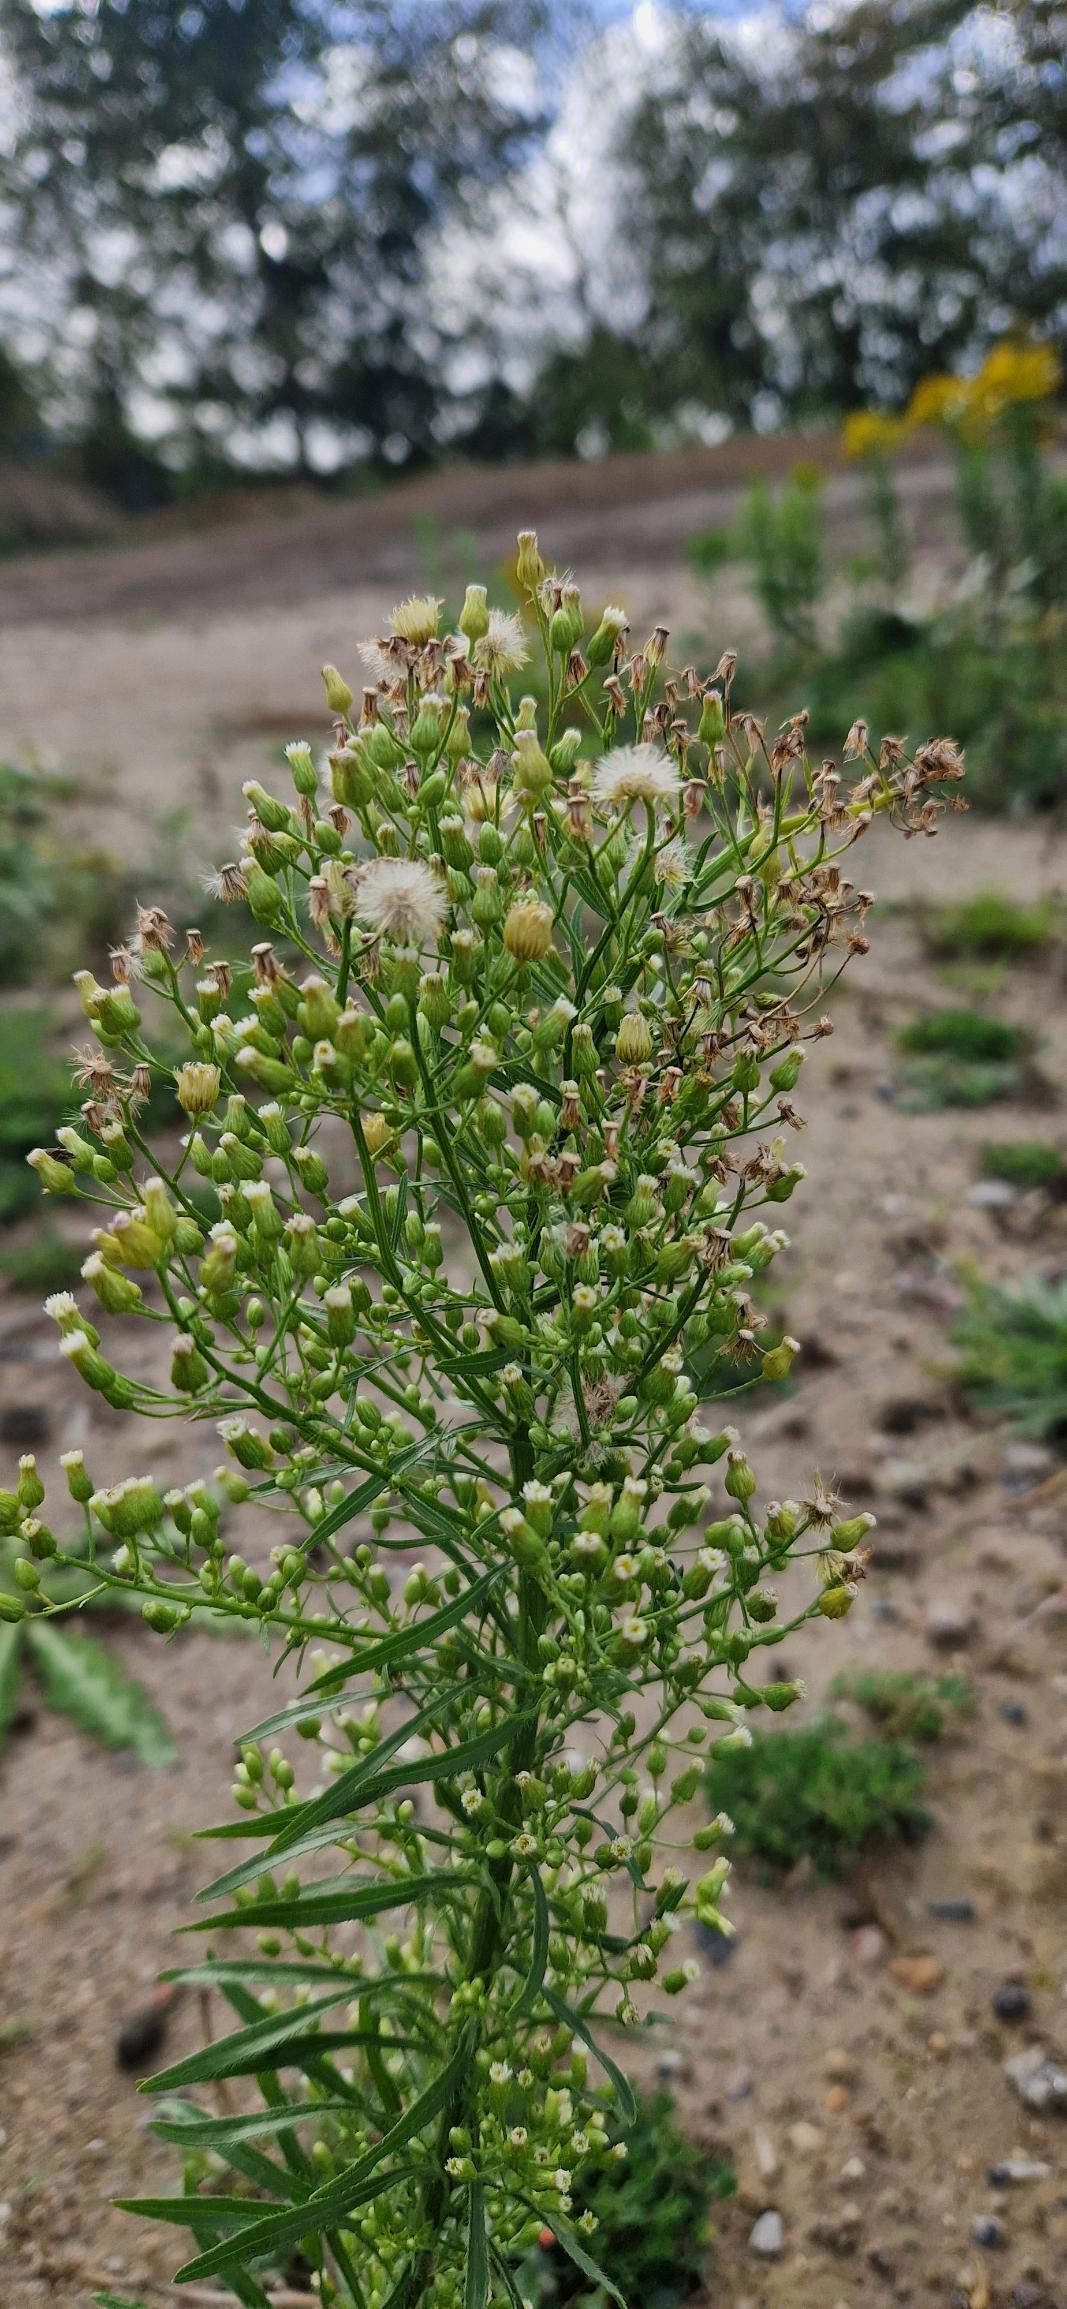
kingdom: Plantae
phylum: Tracheophyta
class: Magnoliopsida
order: Asterales
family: Asteraceae
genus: Erigeron
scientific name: Erigeron canadensis
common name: Kanadisk bakkestjerne
